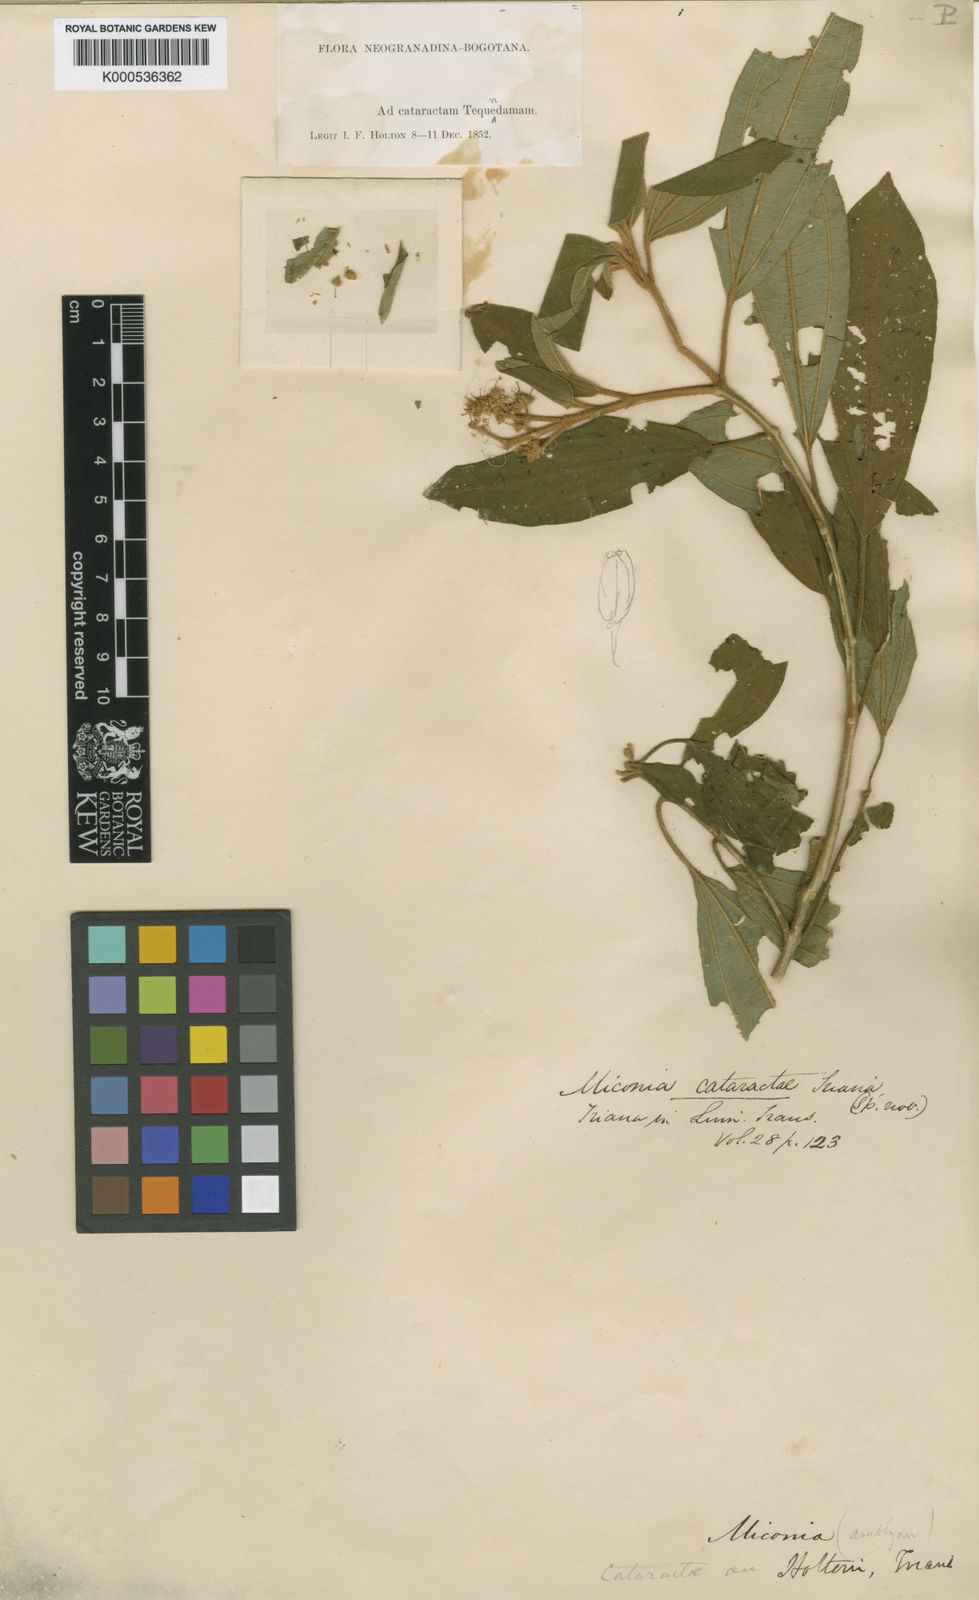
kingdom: Plantae
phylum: Tracheophyta
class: Magnoliopsida
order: Myrtales
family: Melastomataceae
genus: Miconia
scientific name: Miconia cataractae
